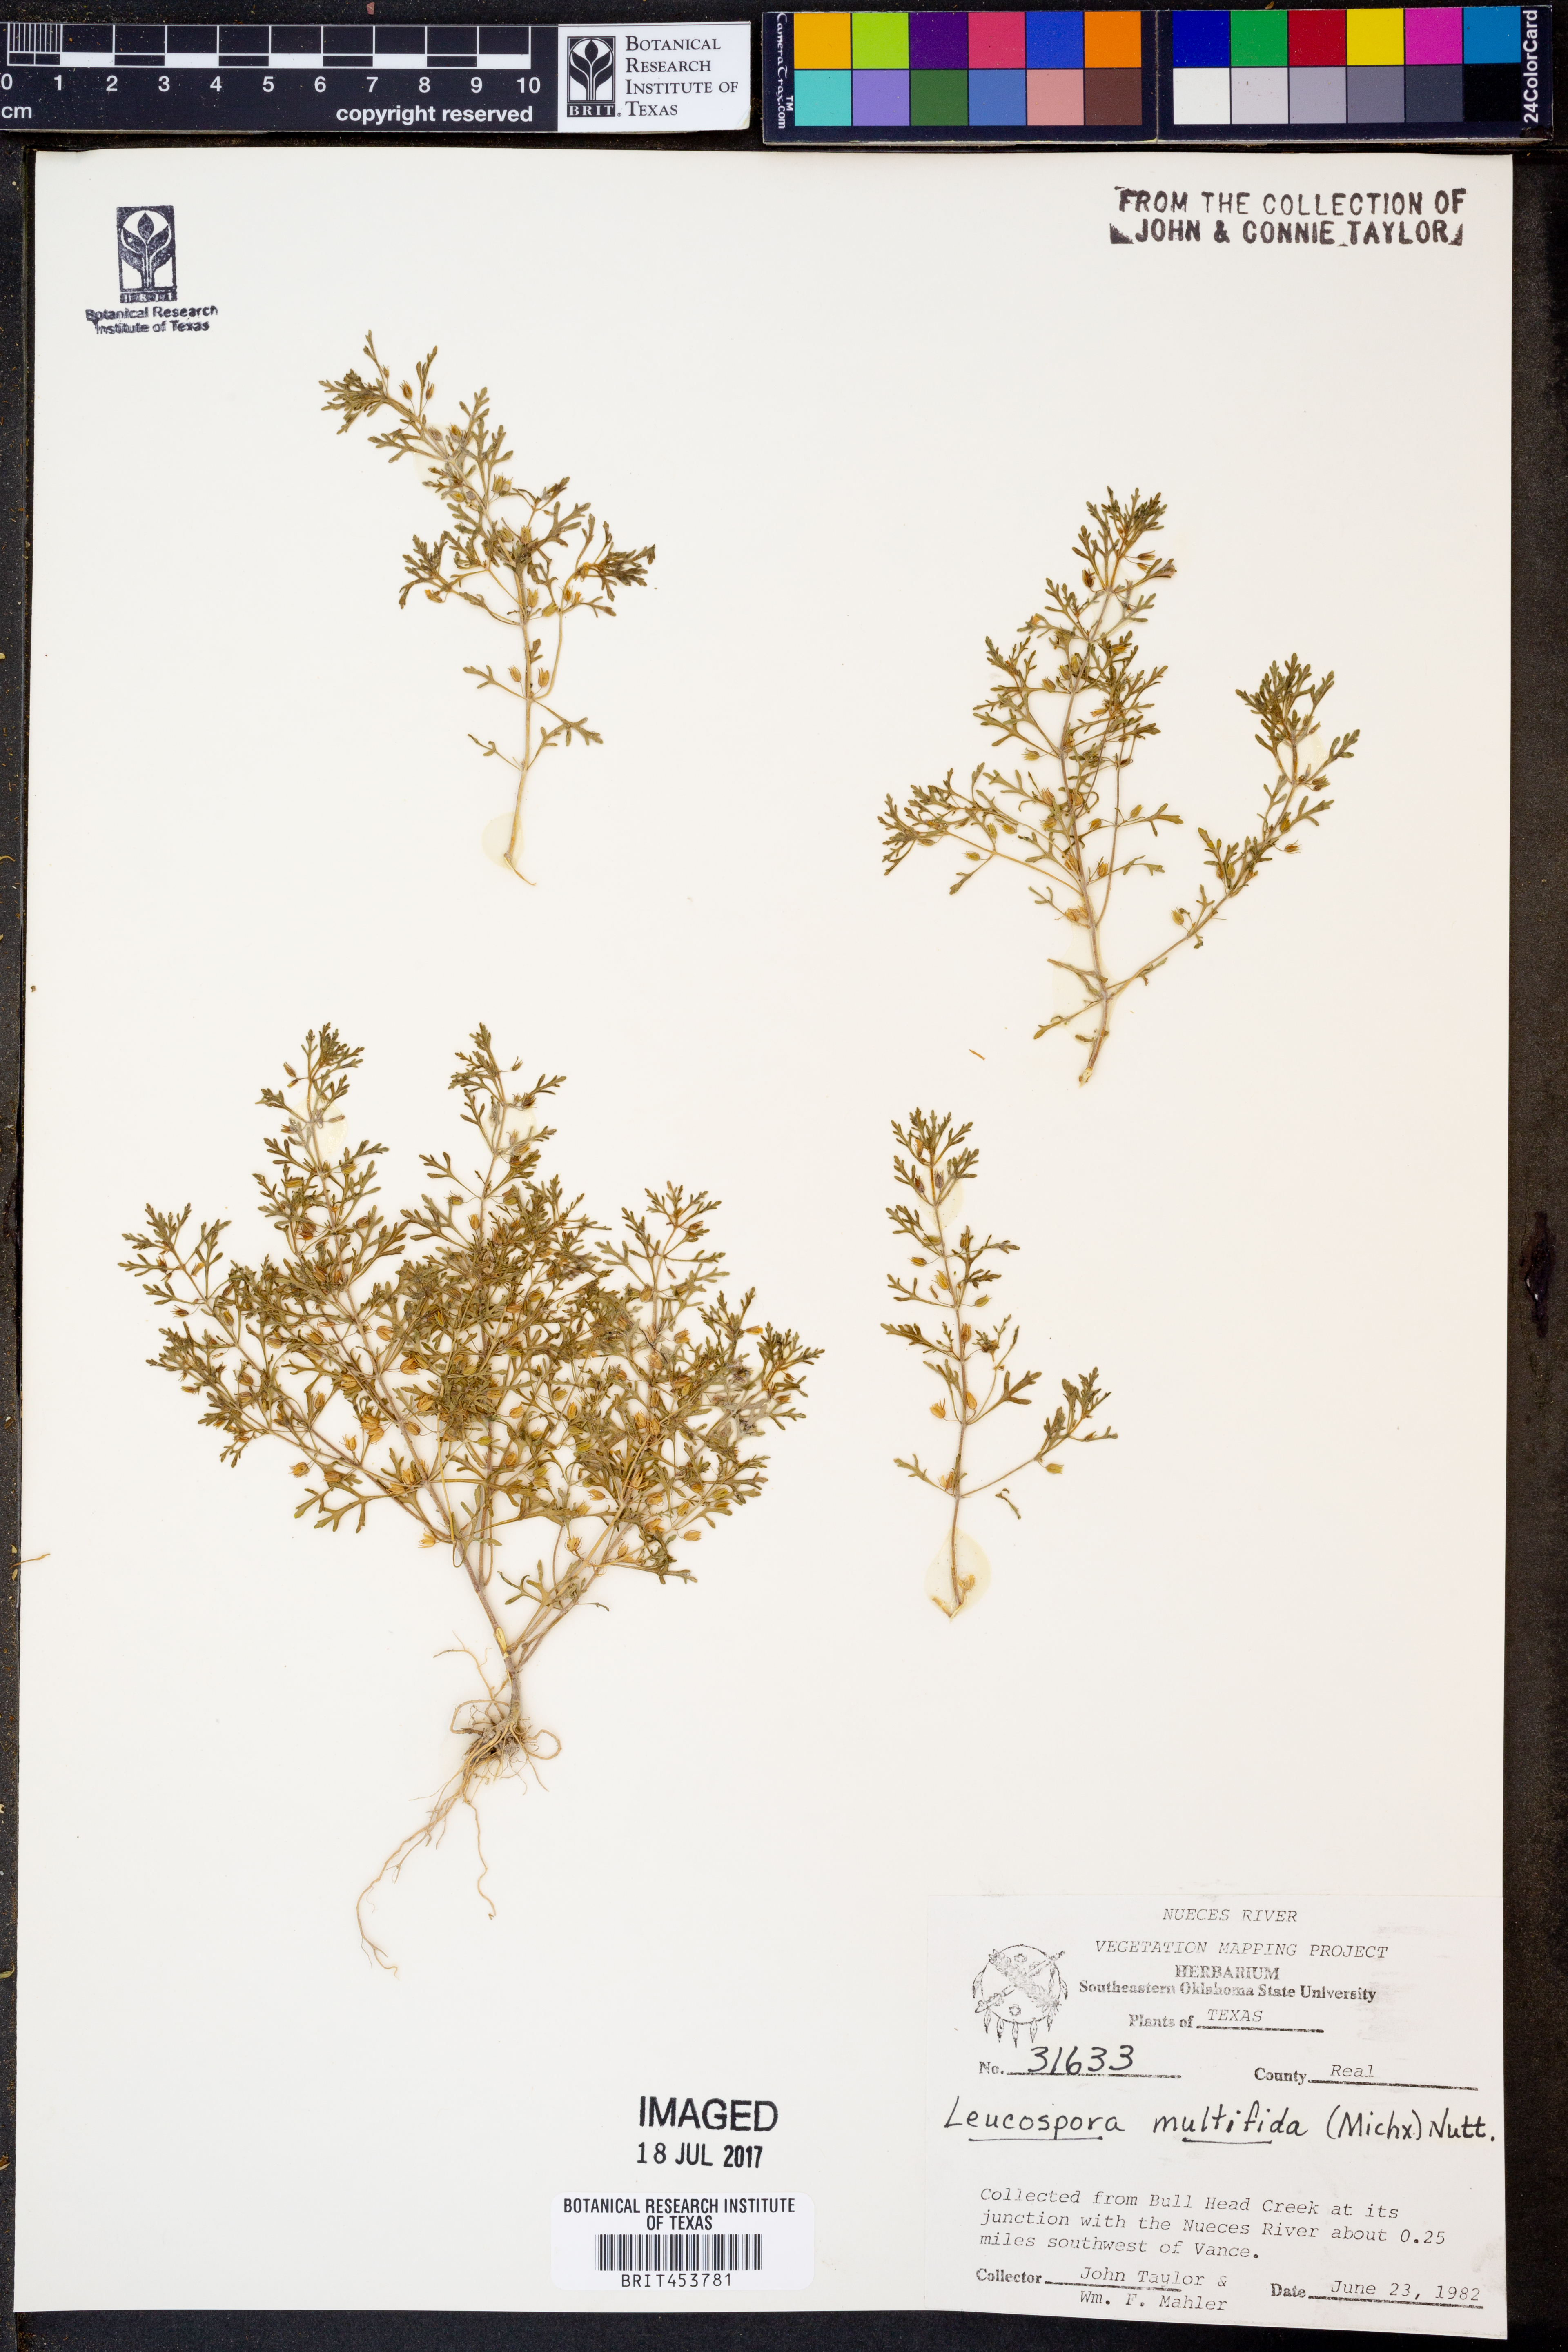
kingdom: Plantae
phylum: Tracheophyta
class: Magnoliopsida
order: Lamiales
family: Plantaginaceae
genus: Leucospora
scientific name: Leucospora multifida
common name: Narrow-leaf paleseed
